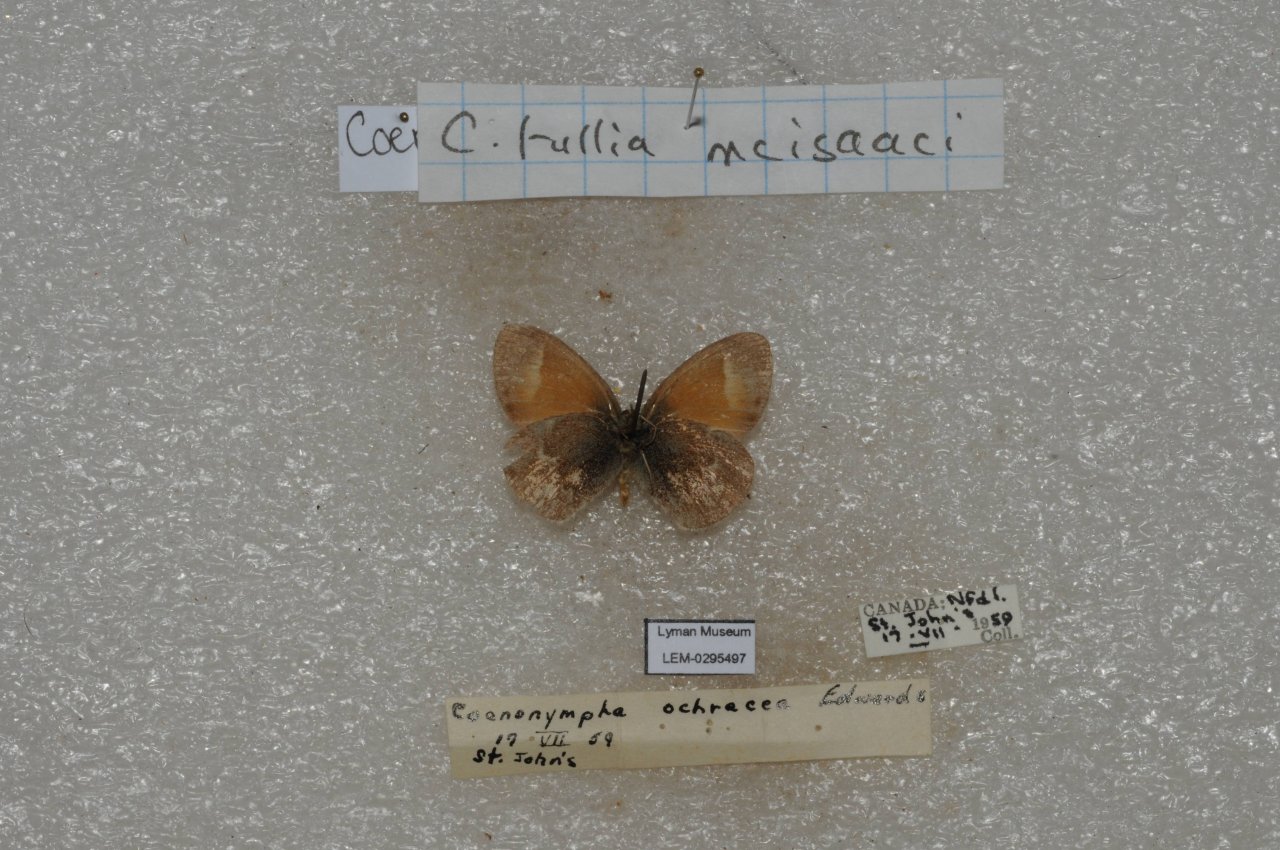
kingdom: Animalia
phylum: Arthropoda
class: Insecta
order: Lepidoptera
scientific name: Lepidoptera
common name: Butterflies
